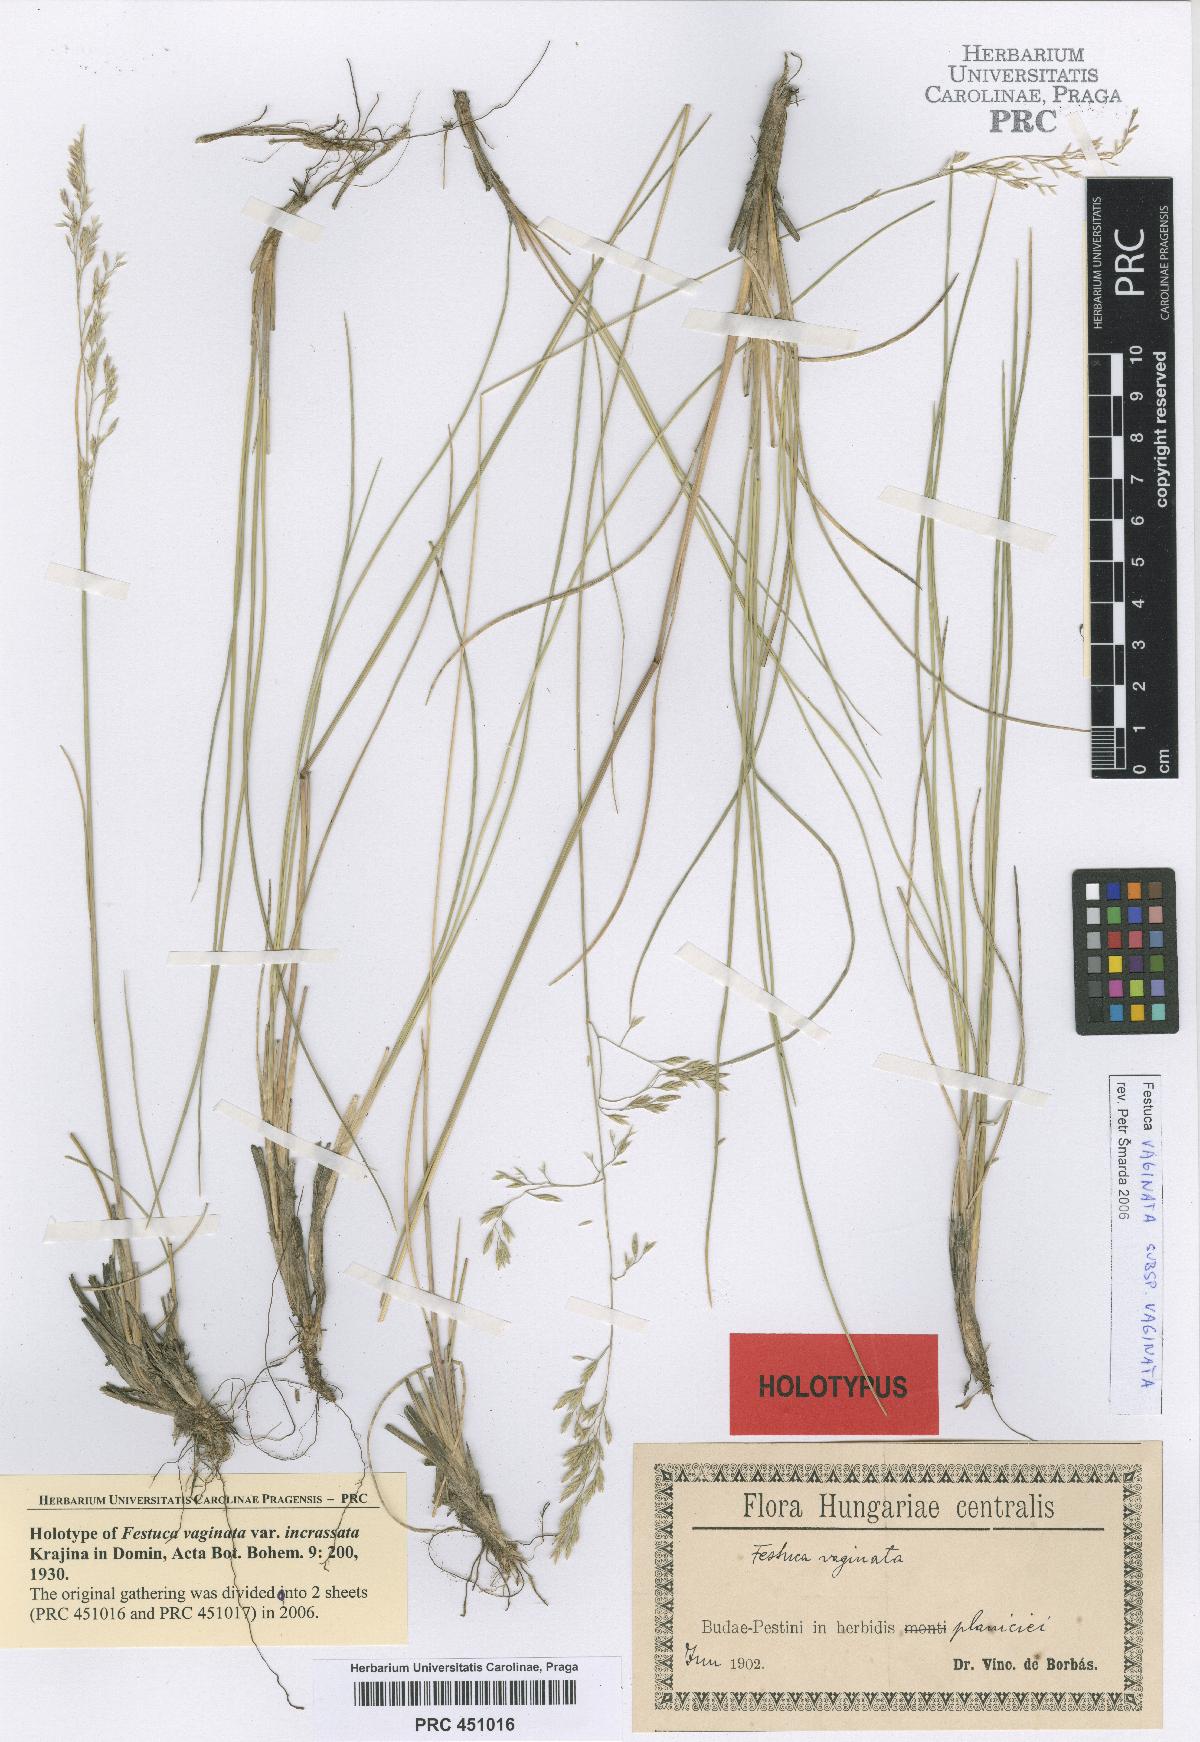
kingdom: Plantae
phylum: Tracheophyta
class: Liliopsida
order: Poales
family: Poaceae
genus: Festuca
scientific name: Festuca vaginata
